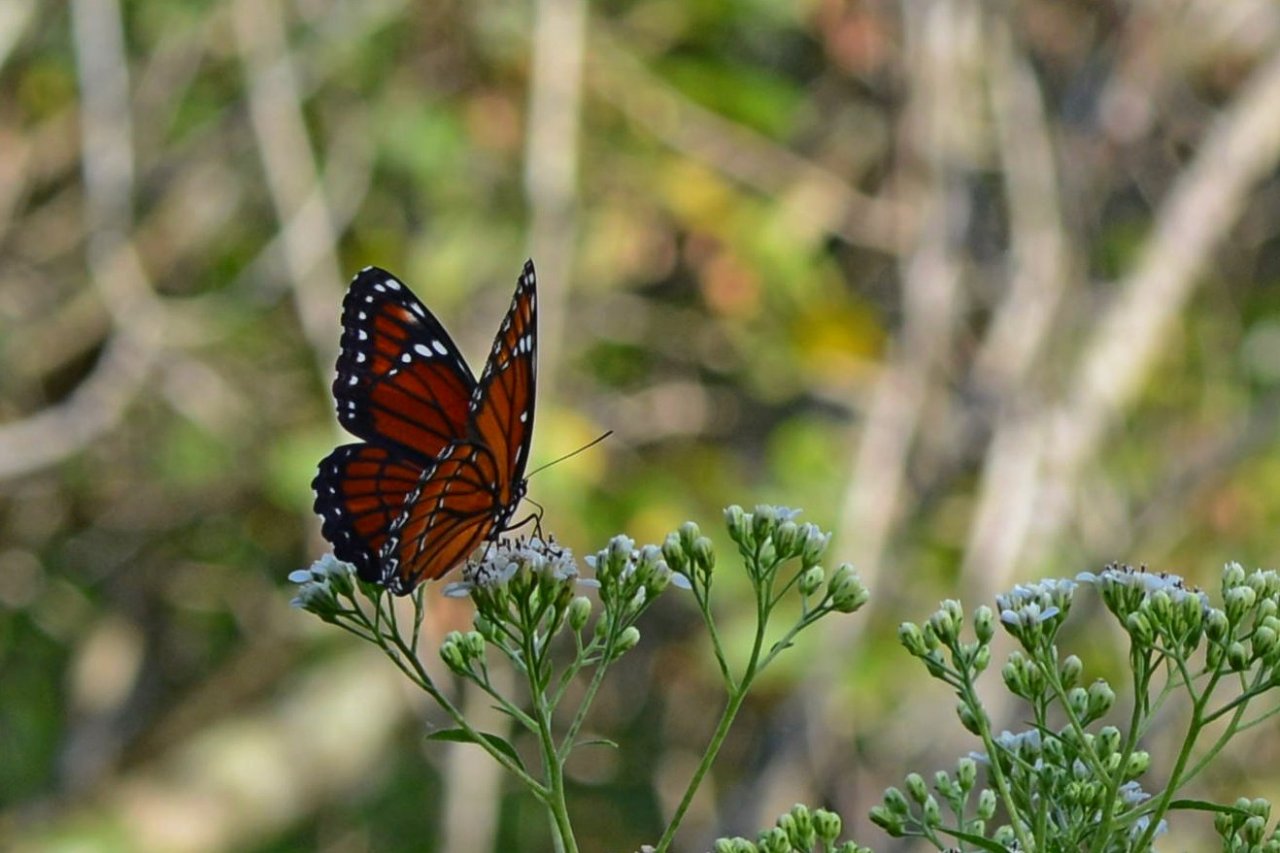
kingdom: Animalia
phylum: Arthropoda
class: Insecta
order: Lepidoptera
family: Nymphalidae
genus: Limenitis
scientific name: Limenitis archippus
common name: Viceroy
